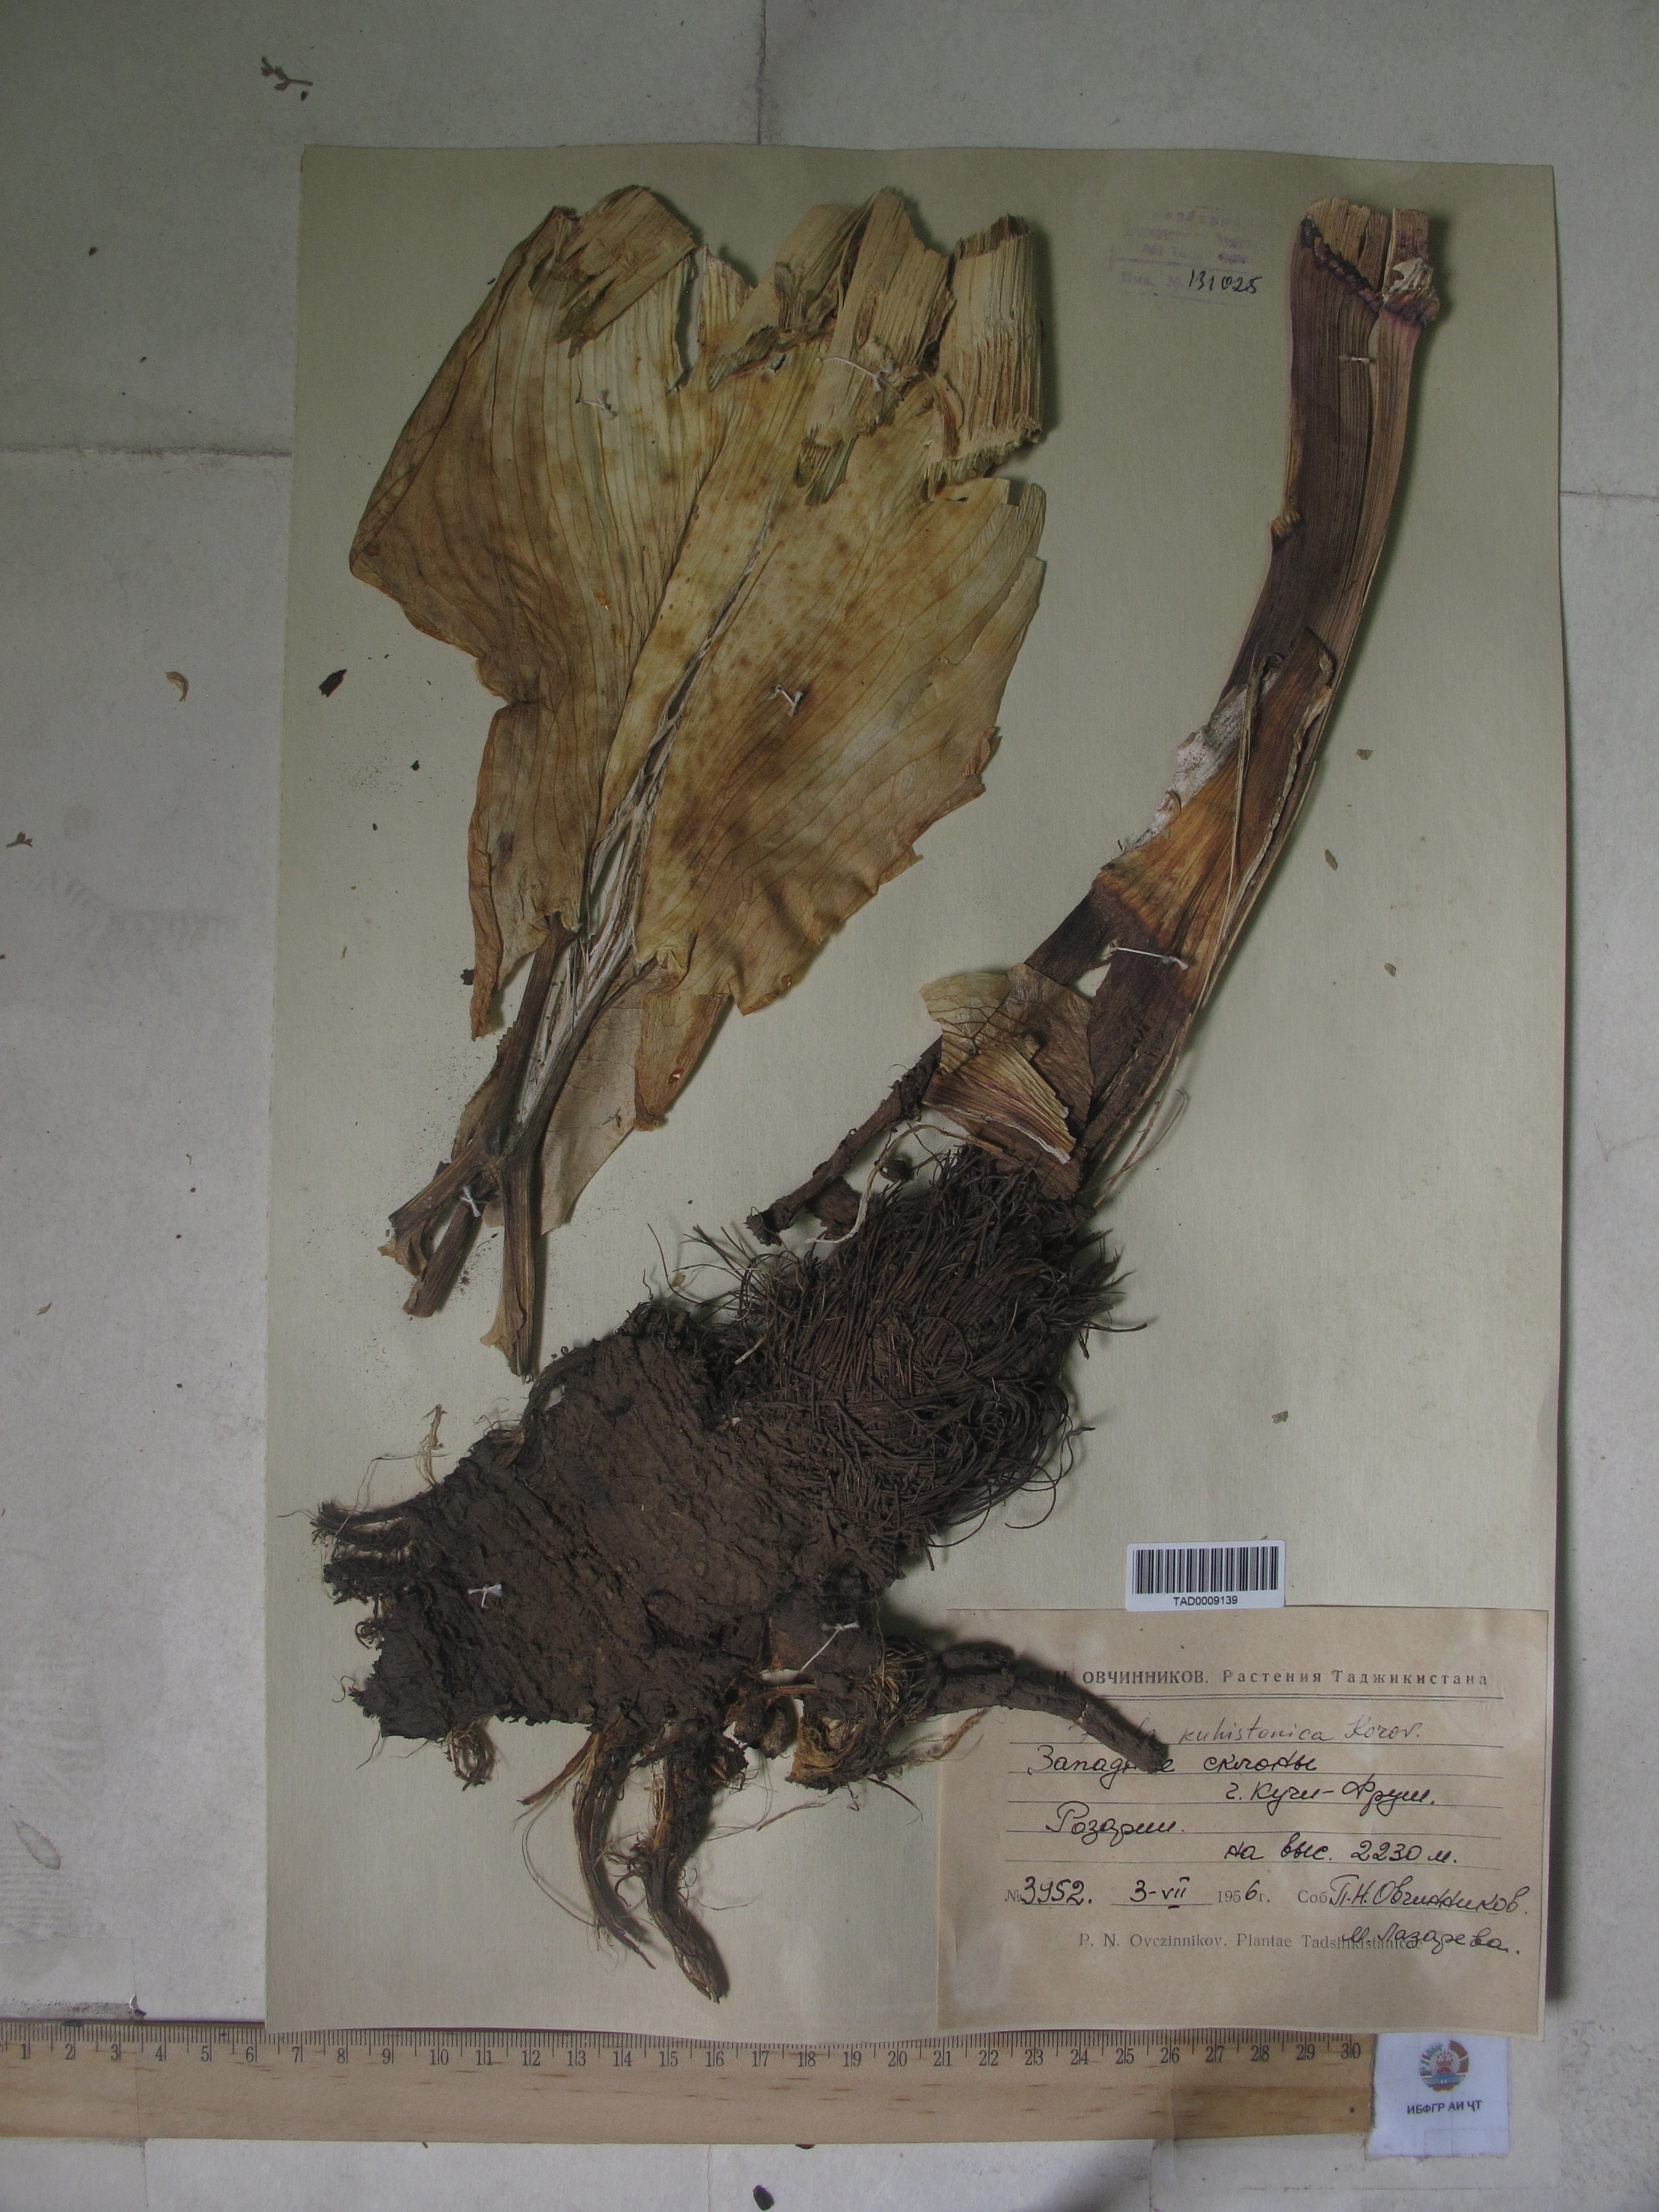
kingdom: Plantae
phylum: Tracheophyta
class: Magnoliopsida
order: Apiales
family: Apiaceae
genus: Ferula
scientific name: Ferula kuhistanica
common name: Kamol
